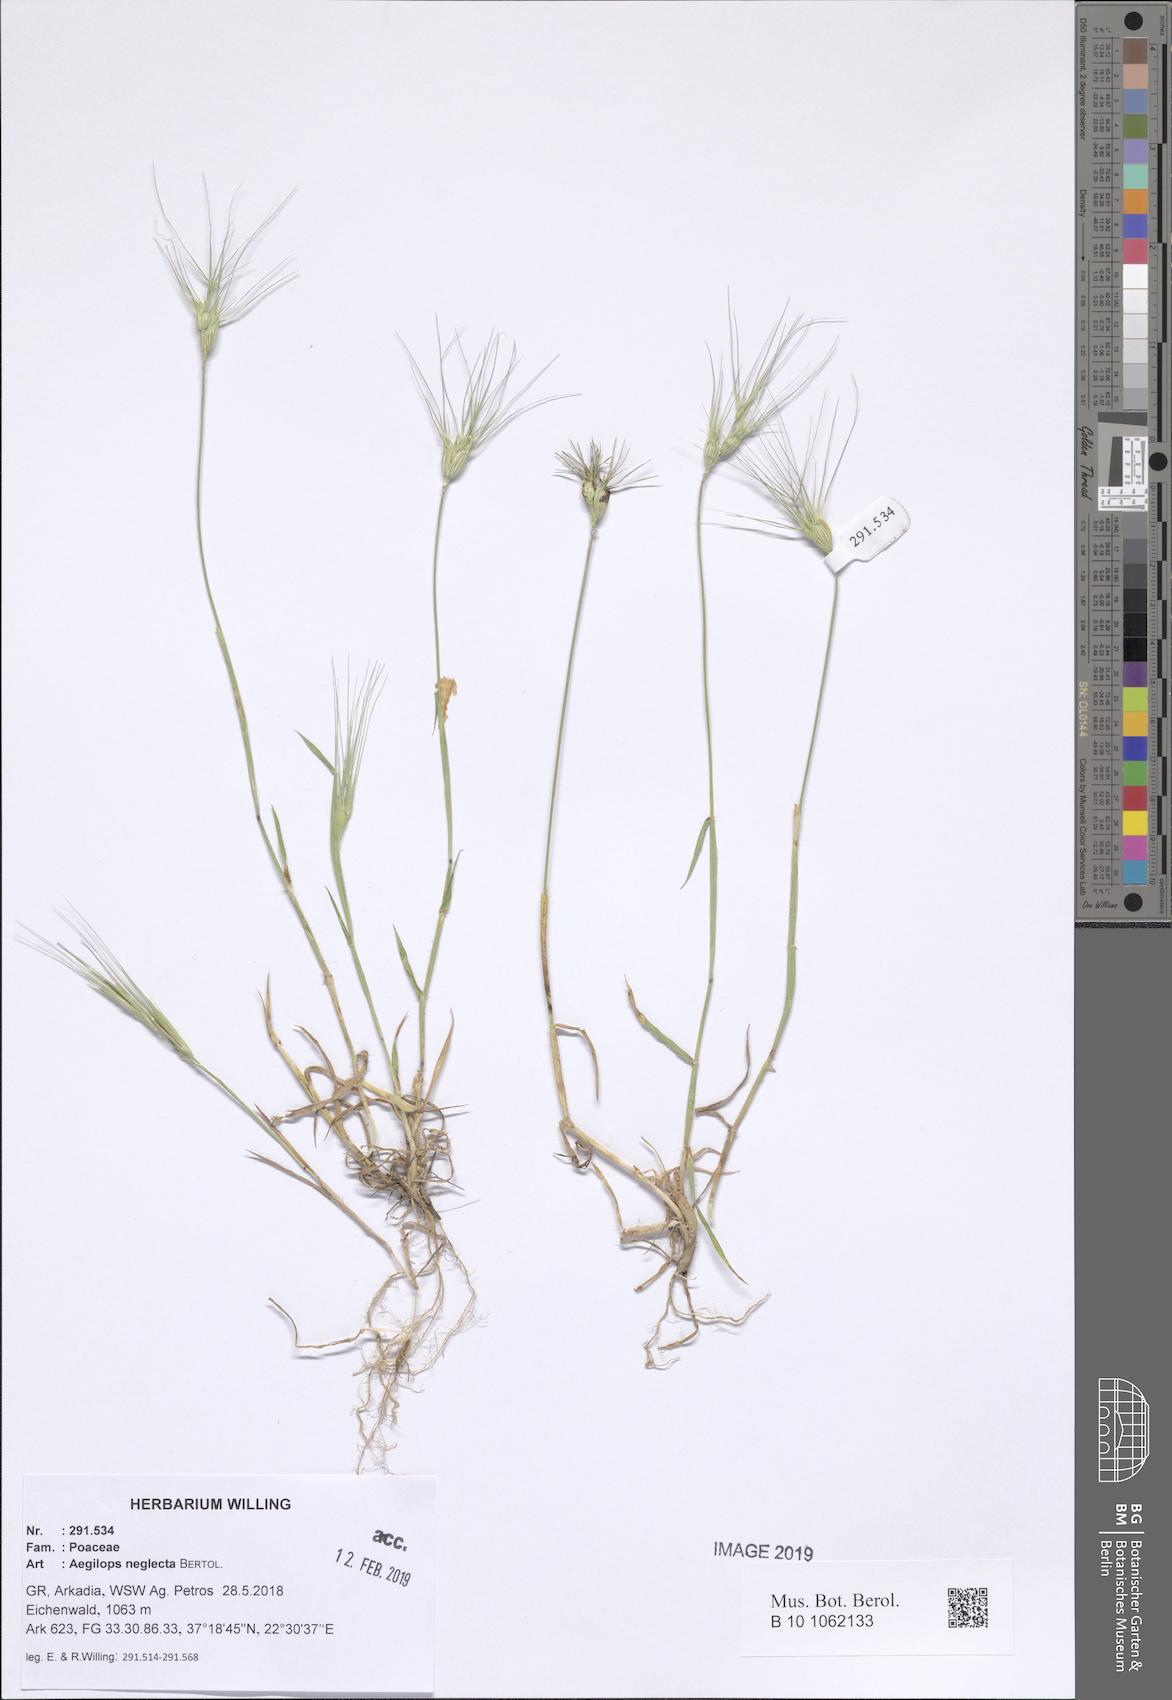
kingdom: Plantae
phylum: Tracheophyta
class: Liliopsida
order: Poales
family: Poaceae
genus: Aegilops
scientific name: Aegilops neglecta
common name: Three-awn goat grass
